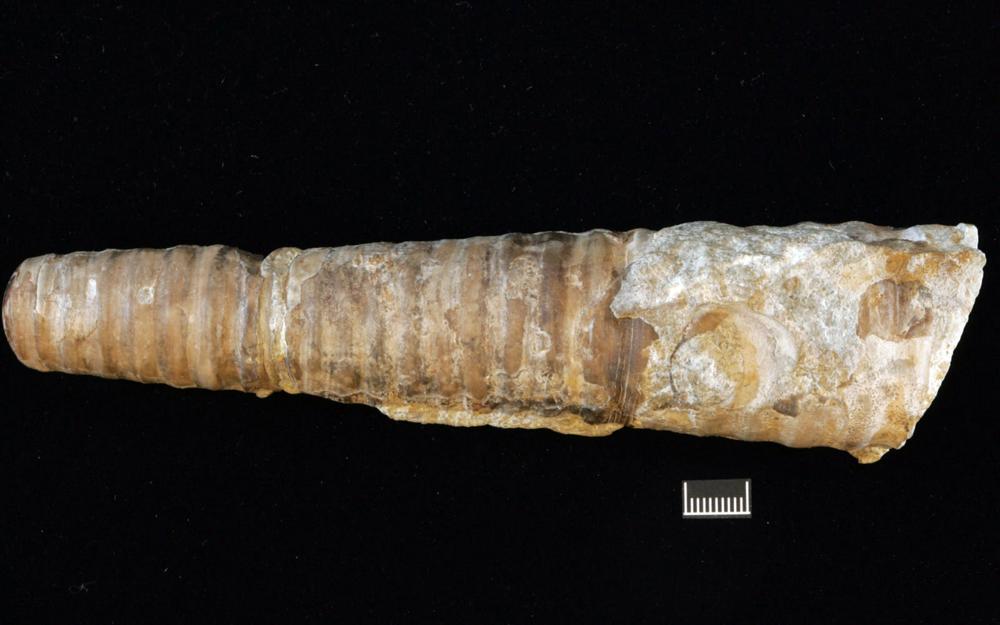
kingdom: Animalia
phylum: Mollusca
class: Cephalopoda
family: Endoceratidae
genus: Cyclendoceras
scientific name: Cyclendoceras
